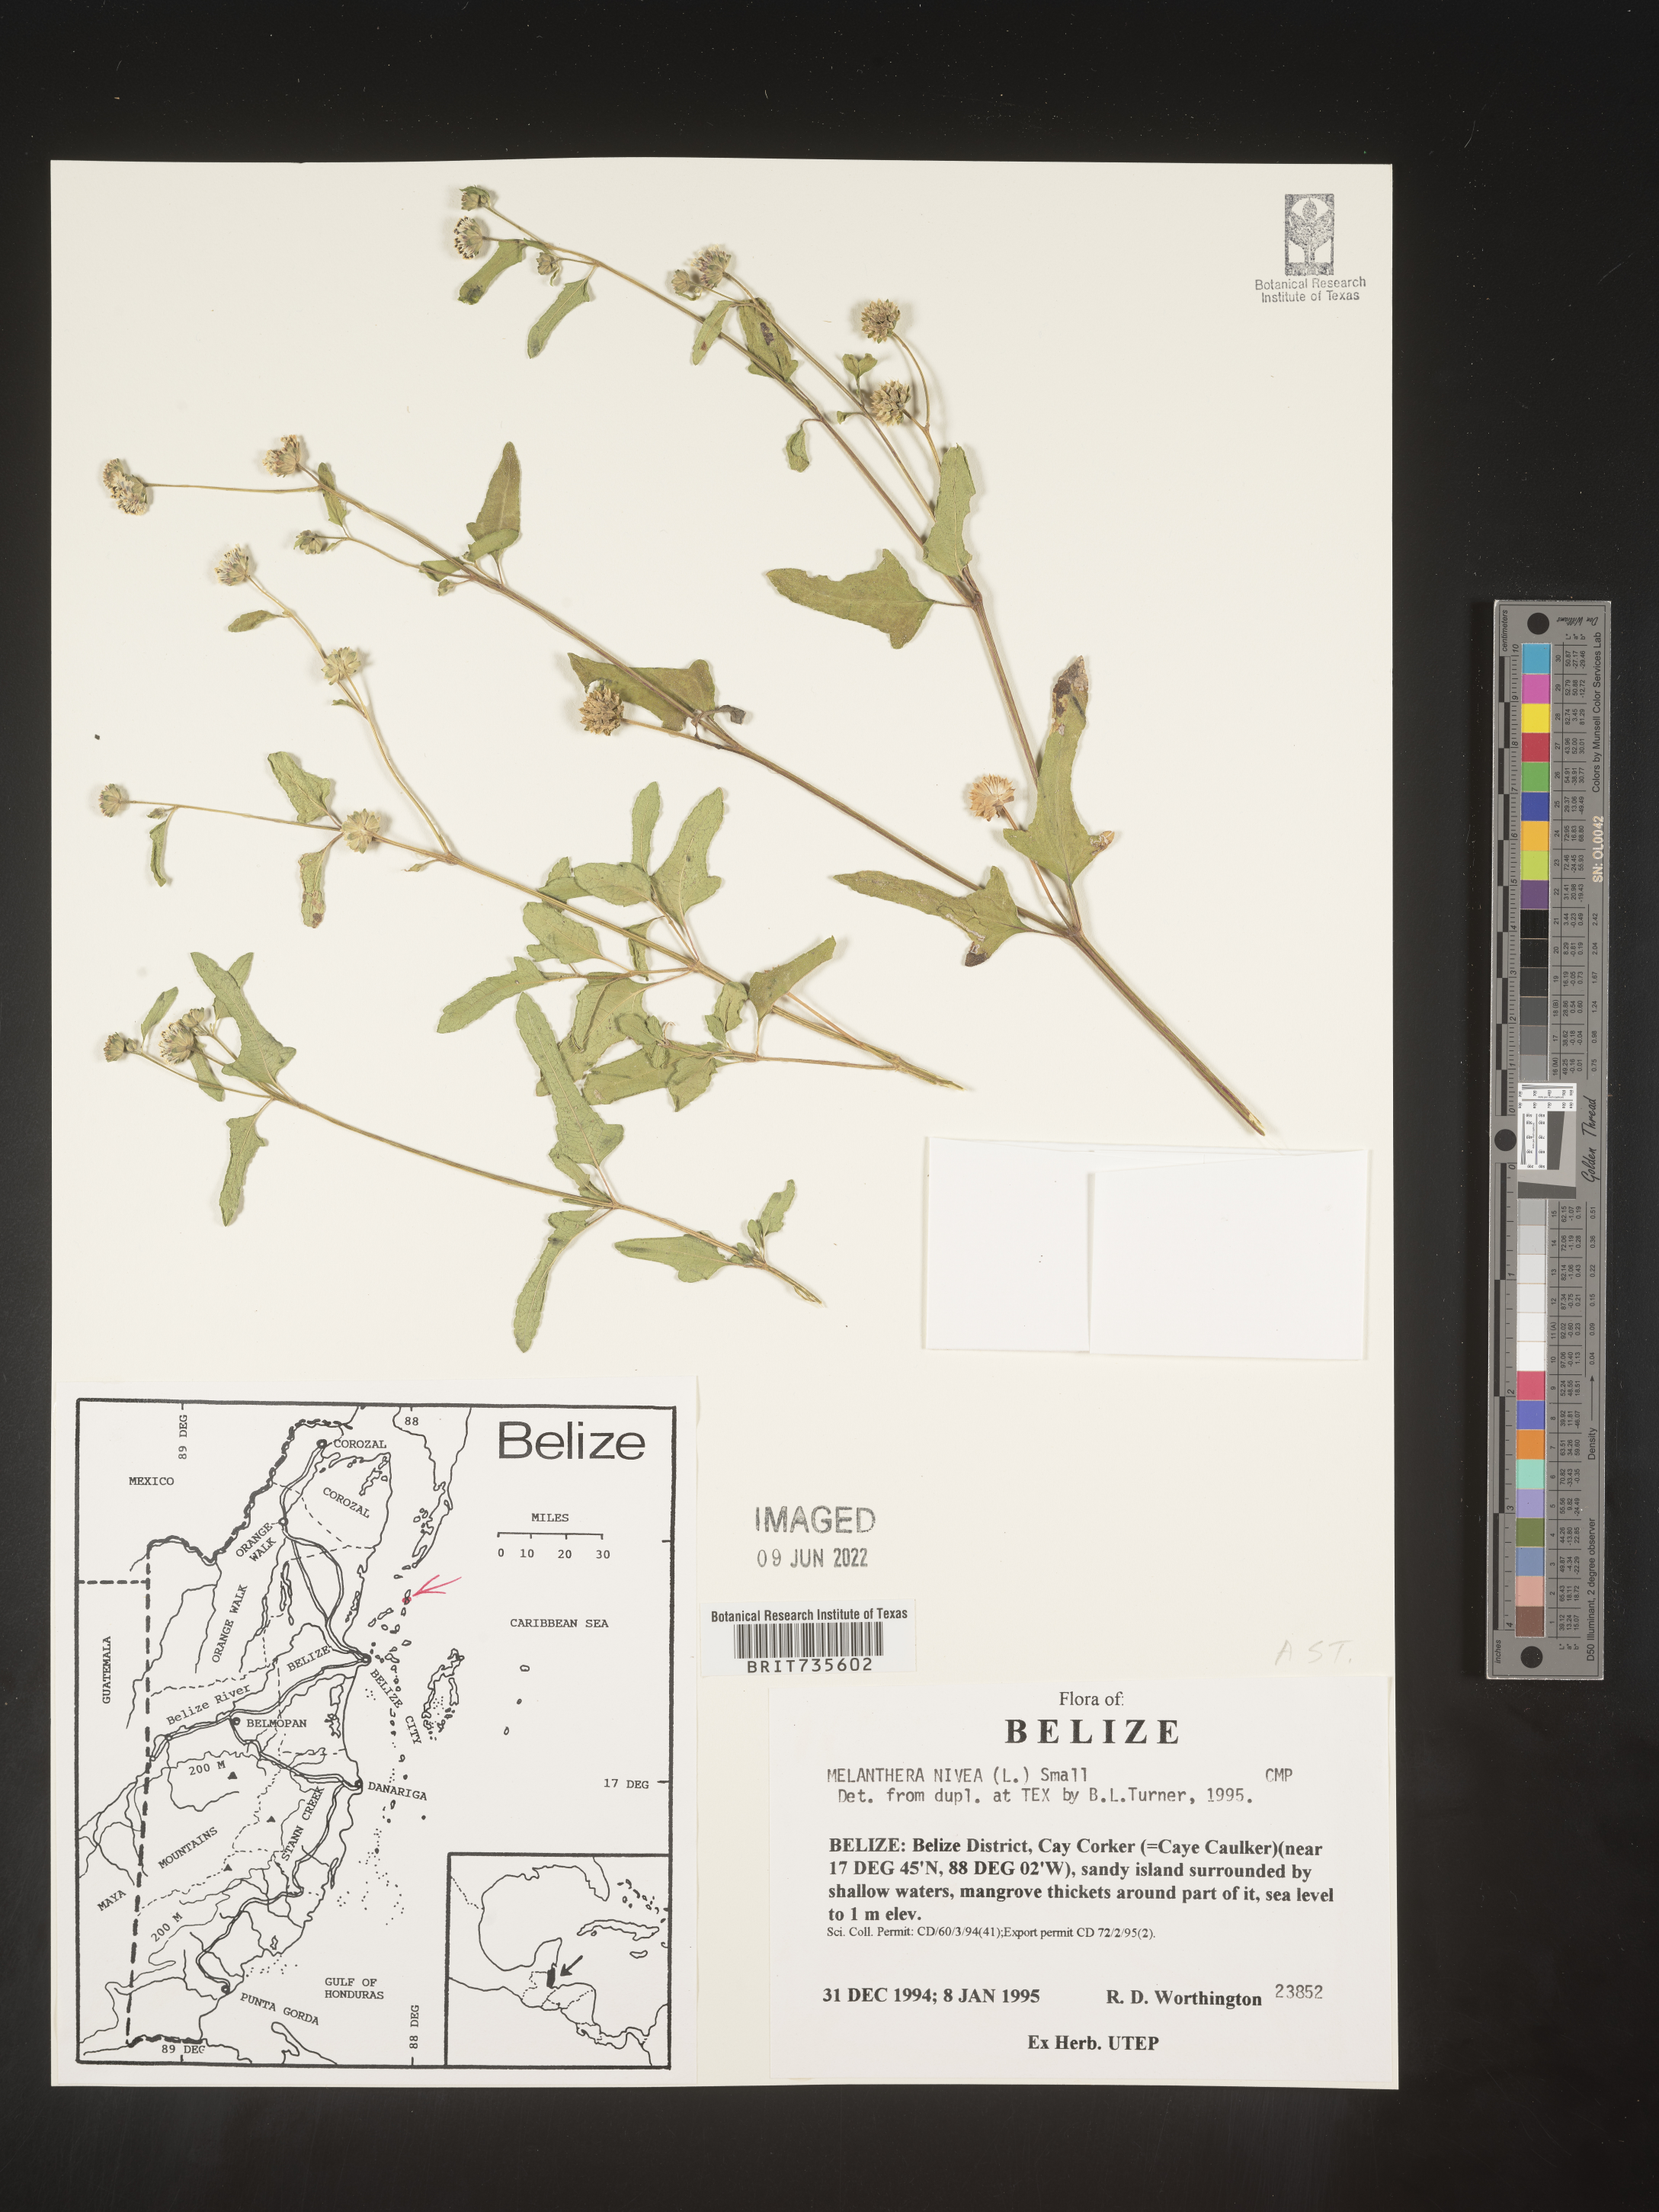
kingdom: Plantae
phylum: Tracheophyta
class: Magnoliopsida
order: Asterales
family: Asteraceae
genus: Melanthera
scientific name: Melanthera
